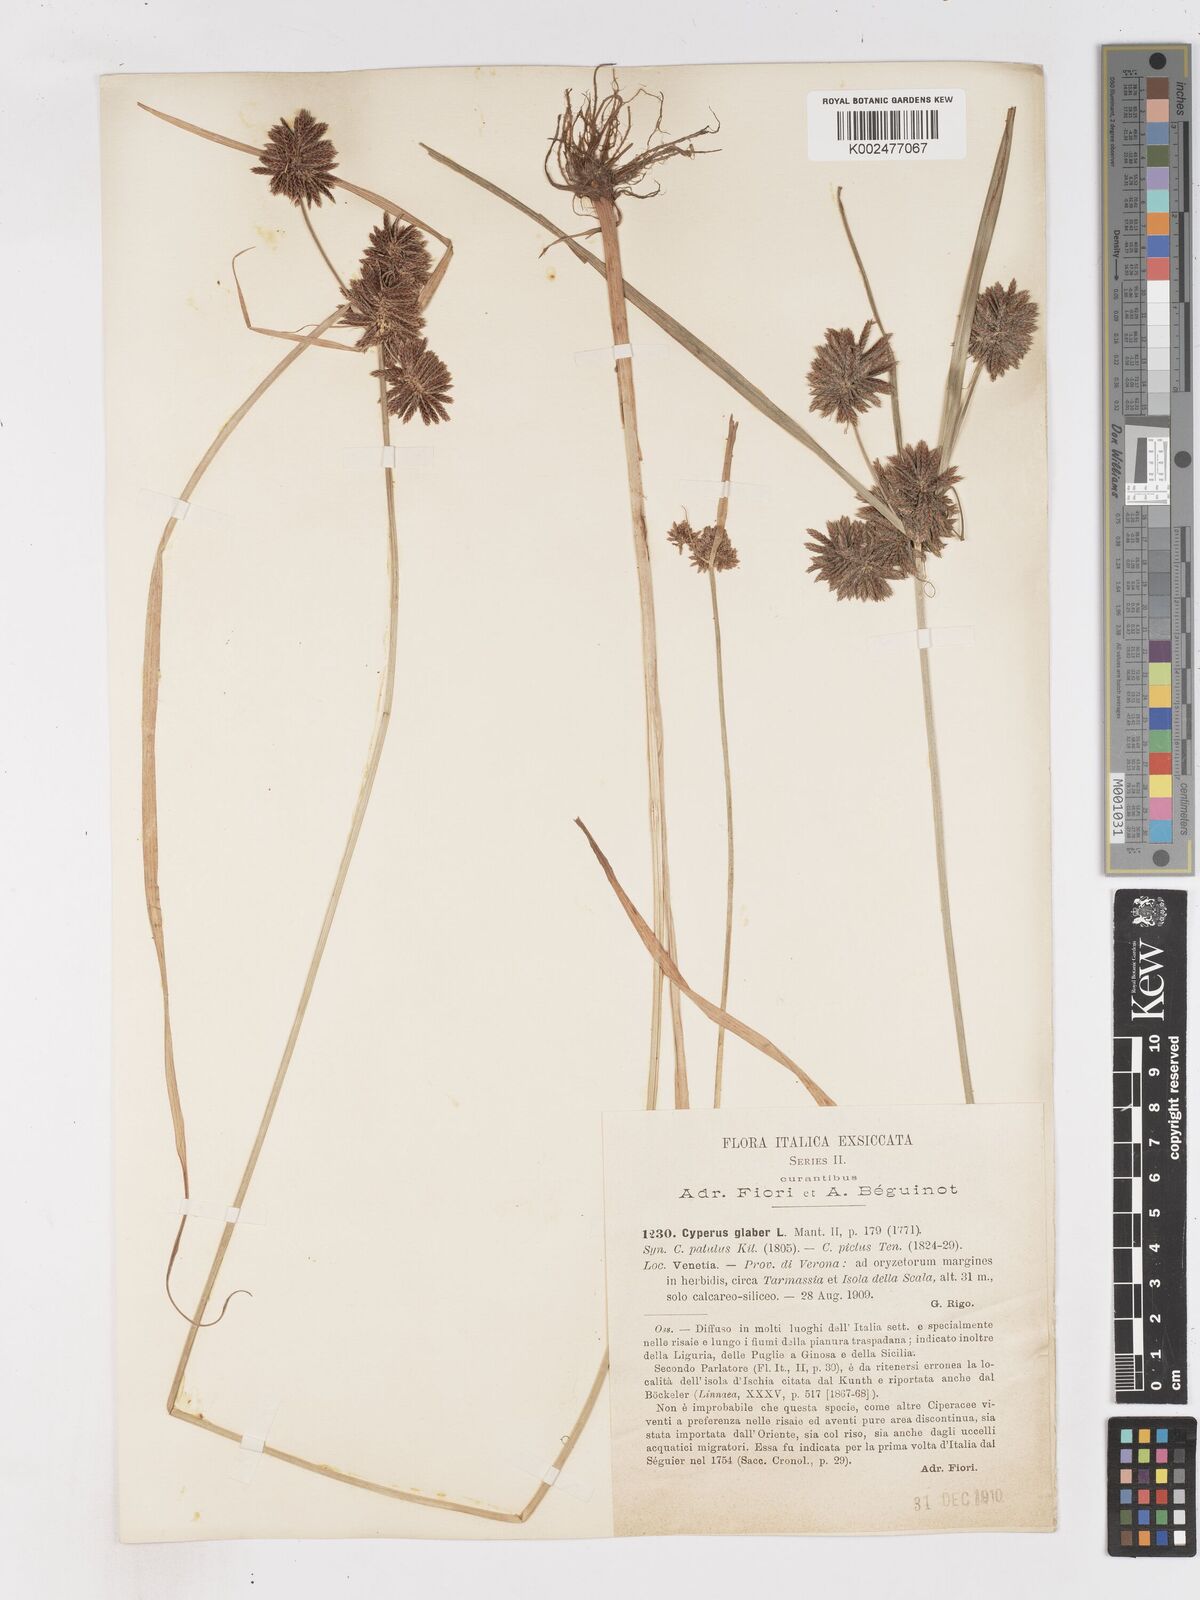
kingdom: Plantae
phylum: Tracheophyta
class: Liliopsida
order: Poales
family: Cyperaceae
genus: Cyperus
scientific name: Cyperus glaber
